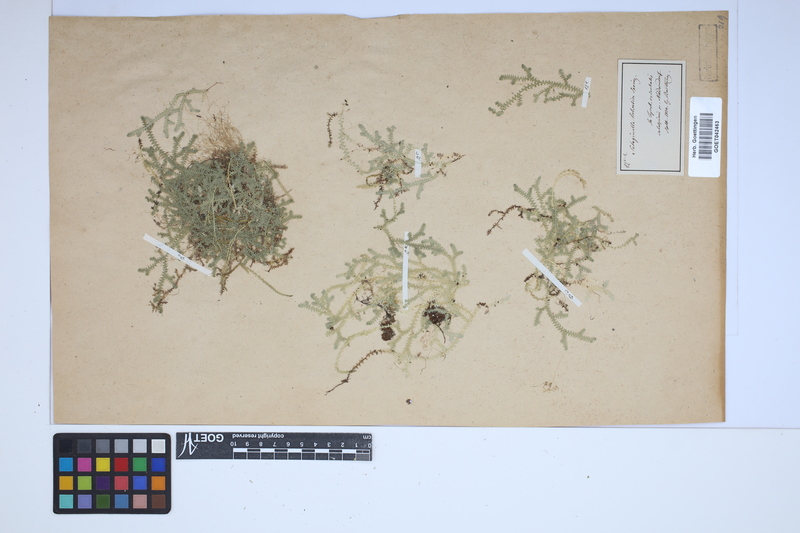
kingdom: Plantae
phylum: Tracheophyta
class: Lycopodiopsida
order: Selaginellales
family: Selaginellaceae
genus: Selaginella
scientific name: Selaginella helvetica
